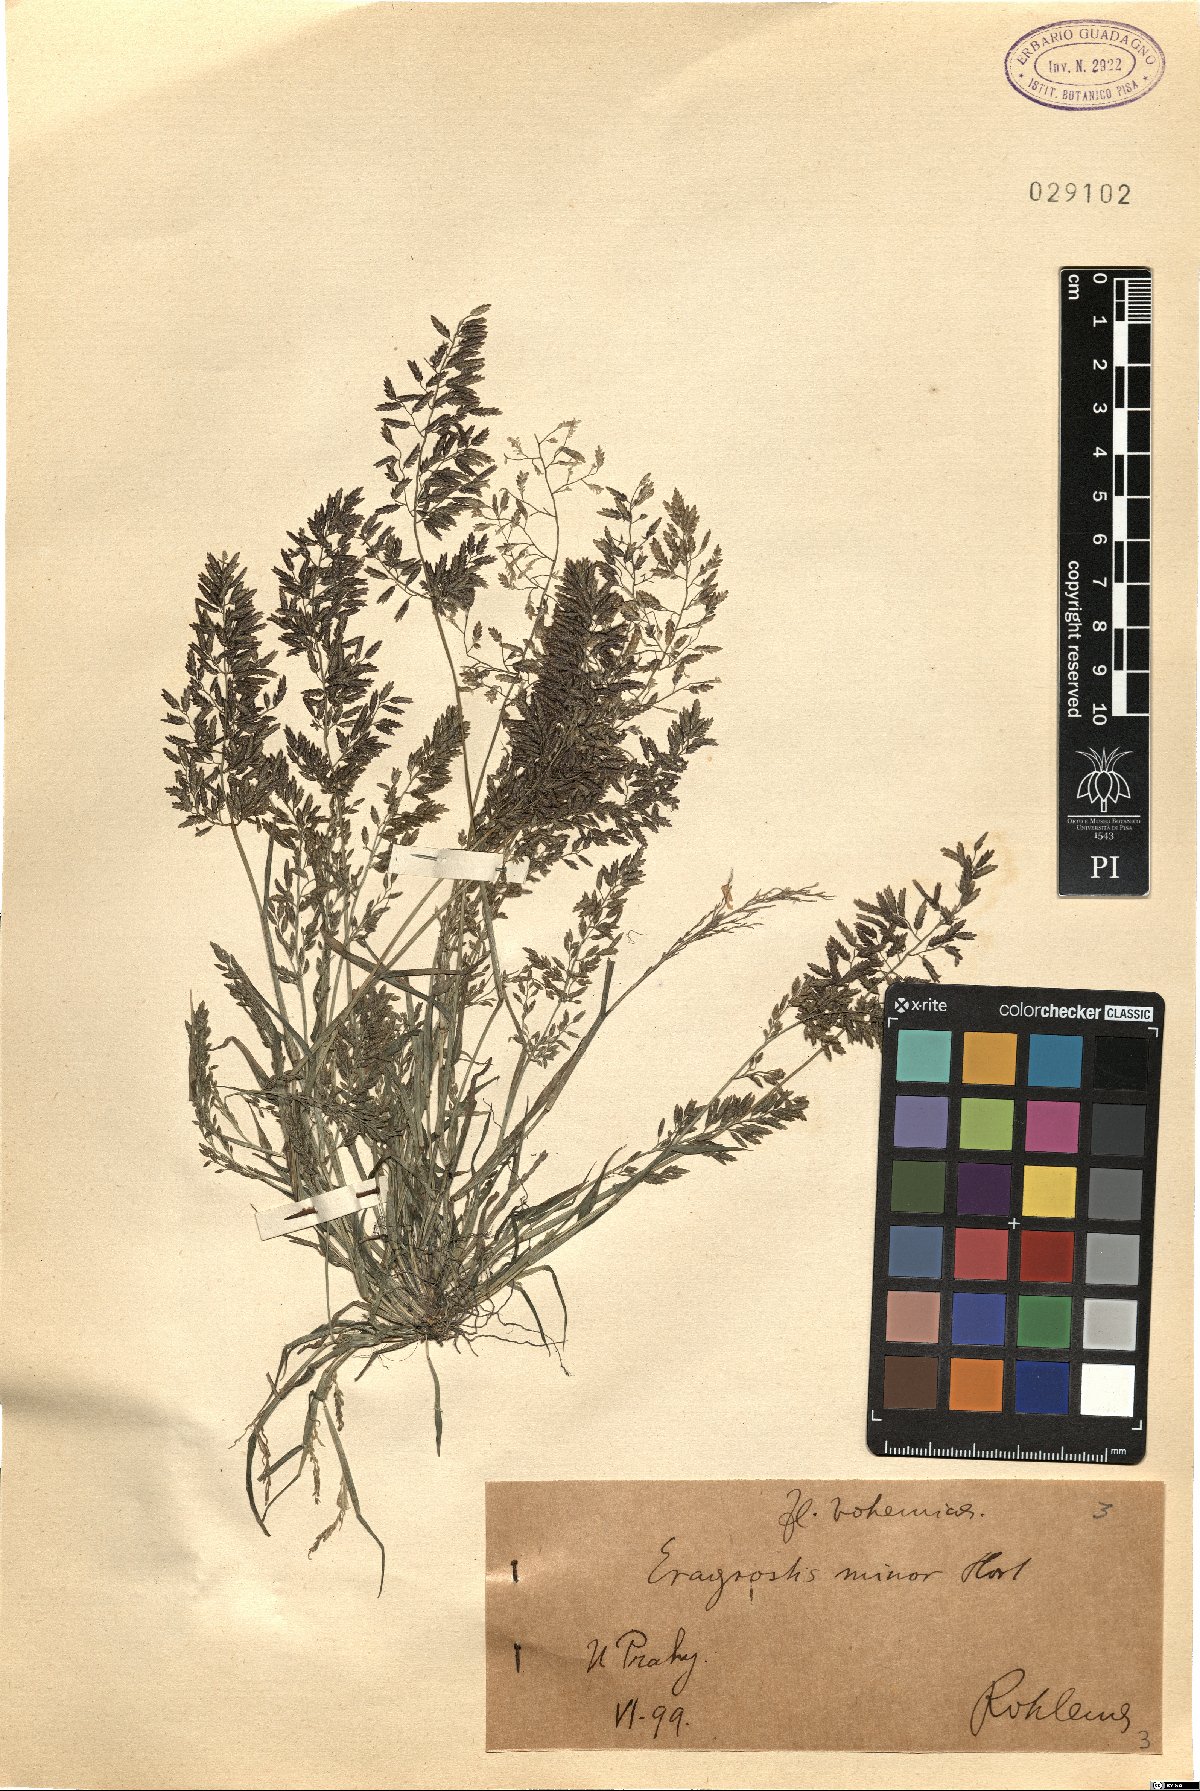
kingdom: Plantae
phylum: Tracheophyta
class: Liliopsida
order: Poales
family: Poaceae
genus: Eragrostis
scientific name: Eragrostis minor
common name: Small love-grass
